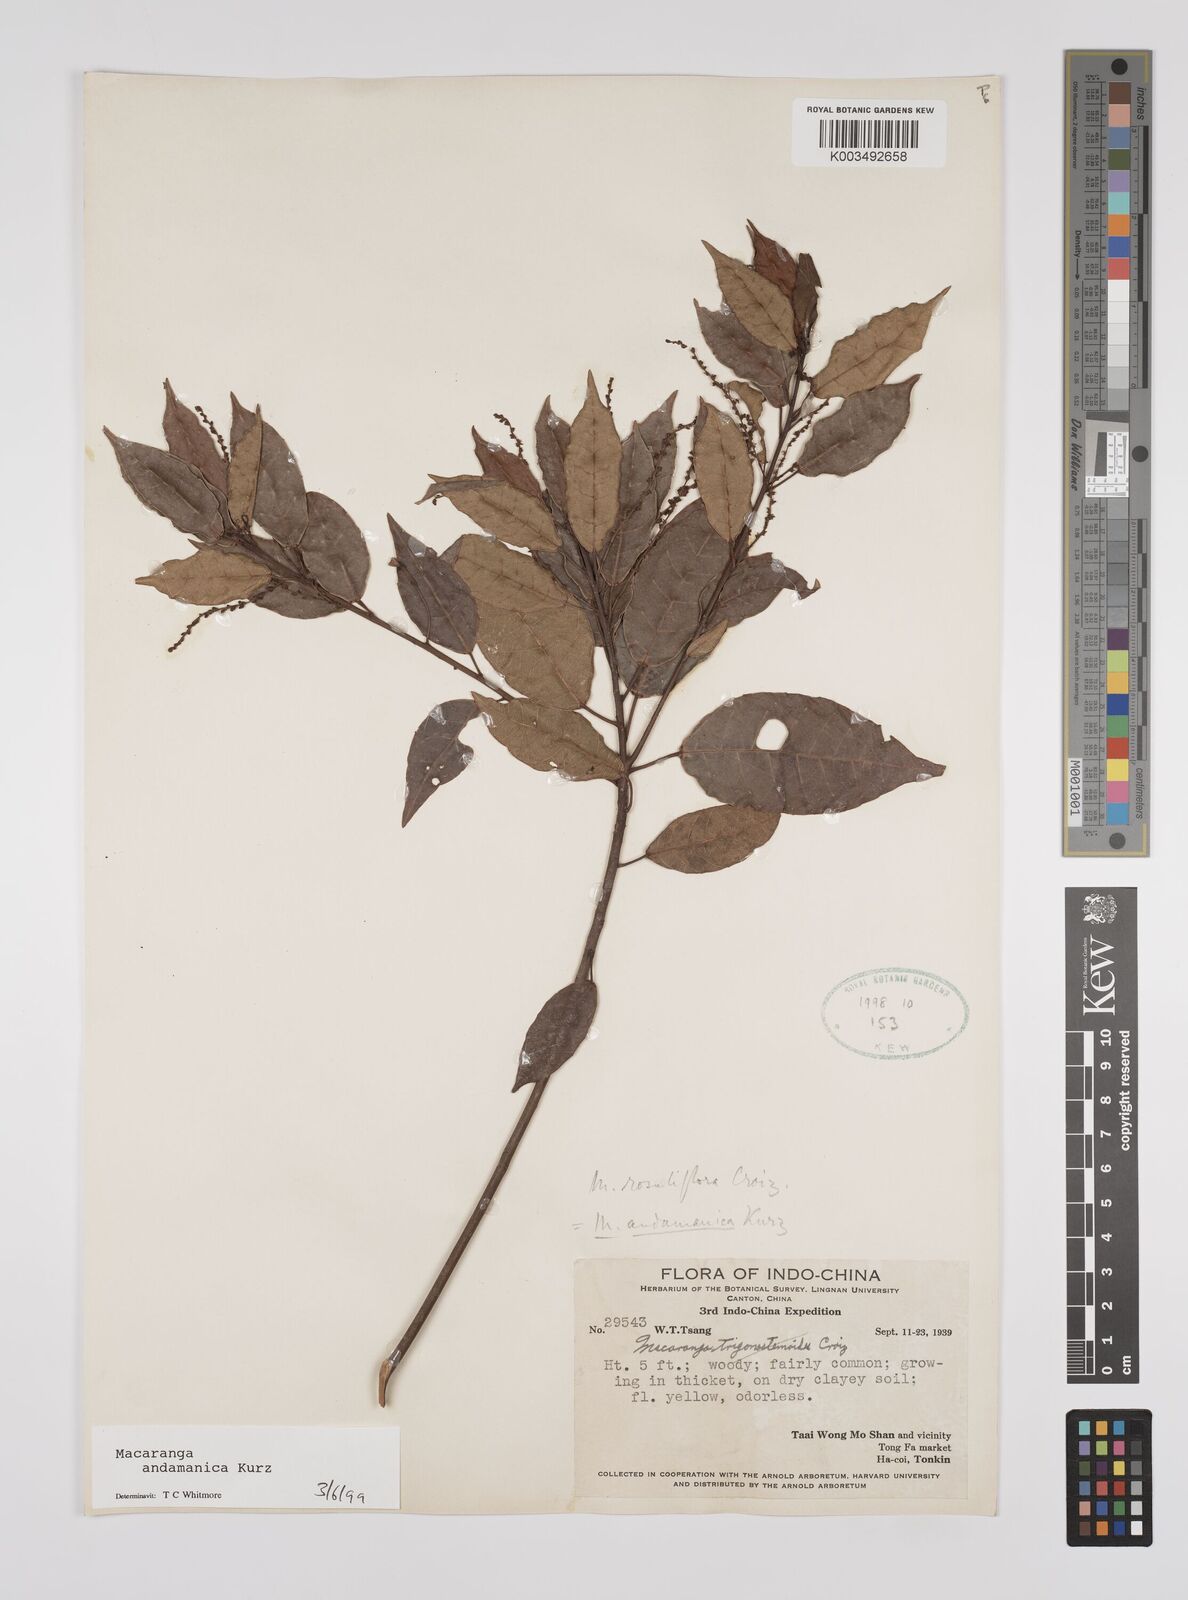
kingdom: Plantae
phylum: Tracheophyta
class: Magnoliopsida
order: Malpighiales
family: Euphorbiaceae
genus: Macaranga
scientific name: Macaranga andamanica
